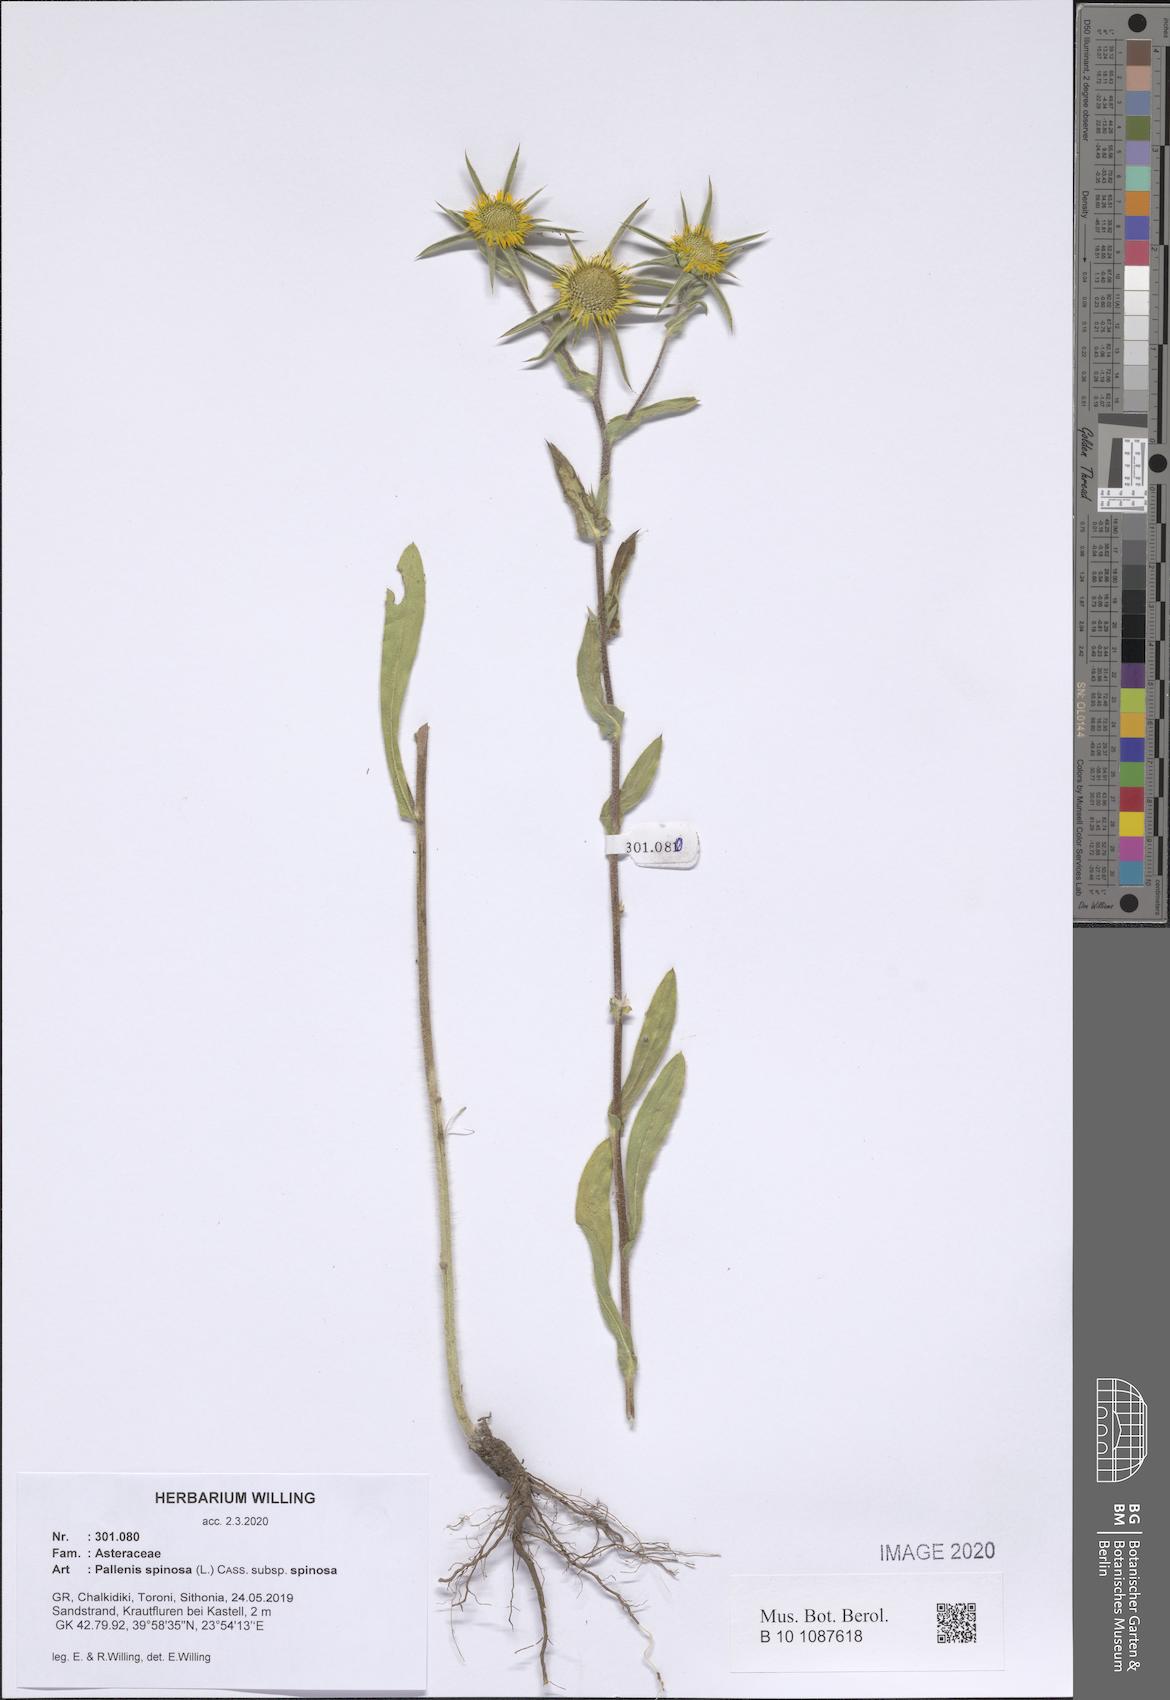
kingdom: Plantae
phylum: Tracheophyta
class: Magnoliopsida
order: Asterales
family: Asteraceae
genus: Pallenis
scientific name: Pallenis spinosa
